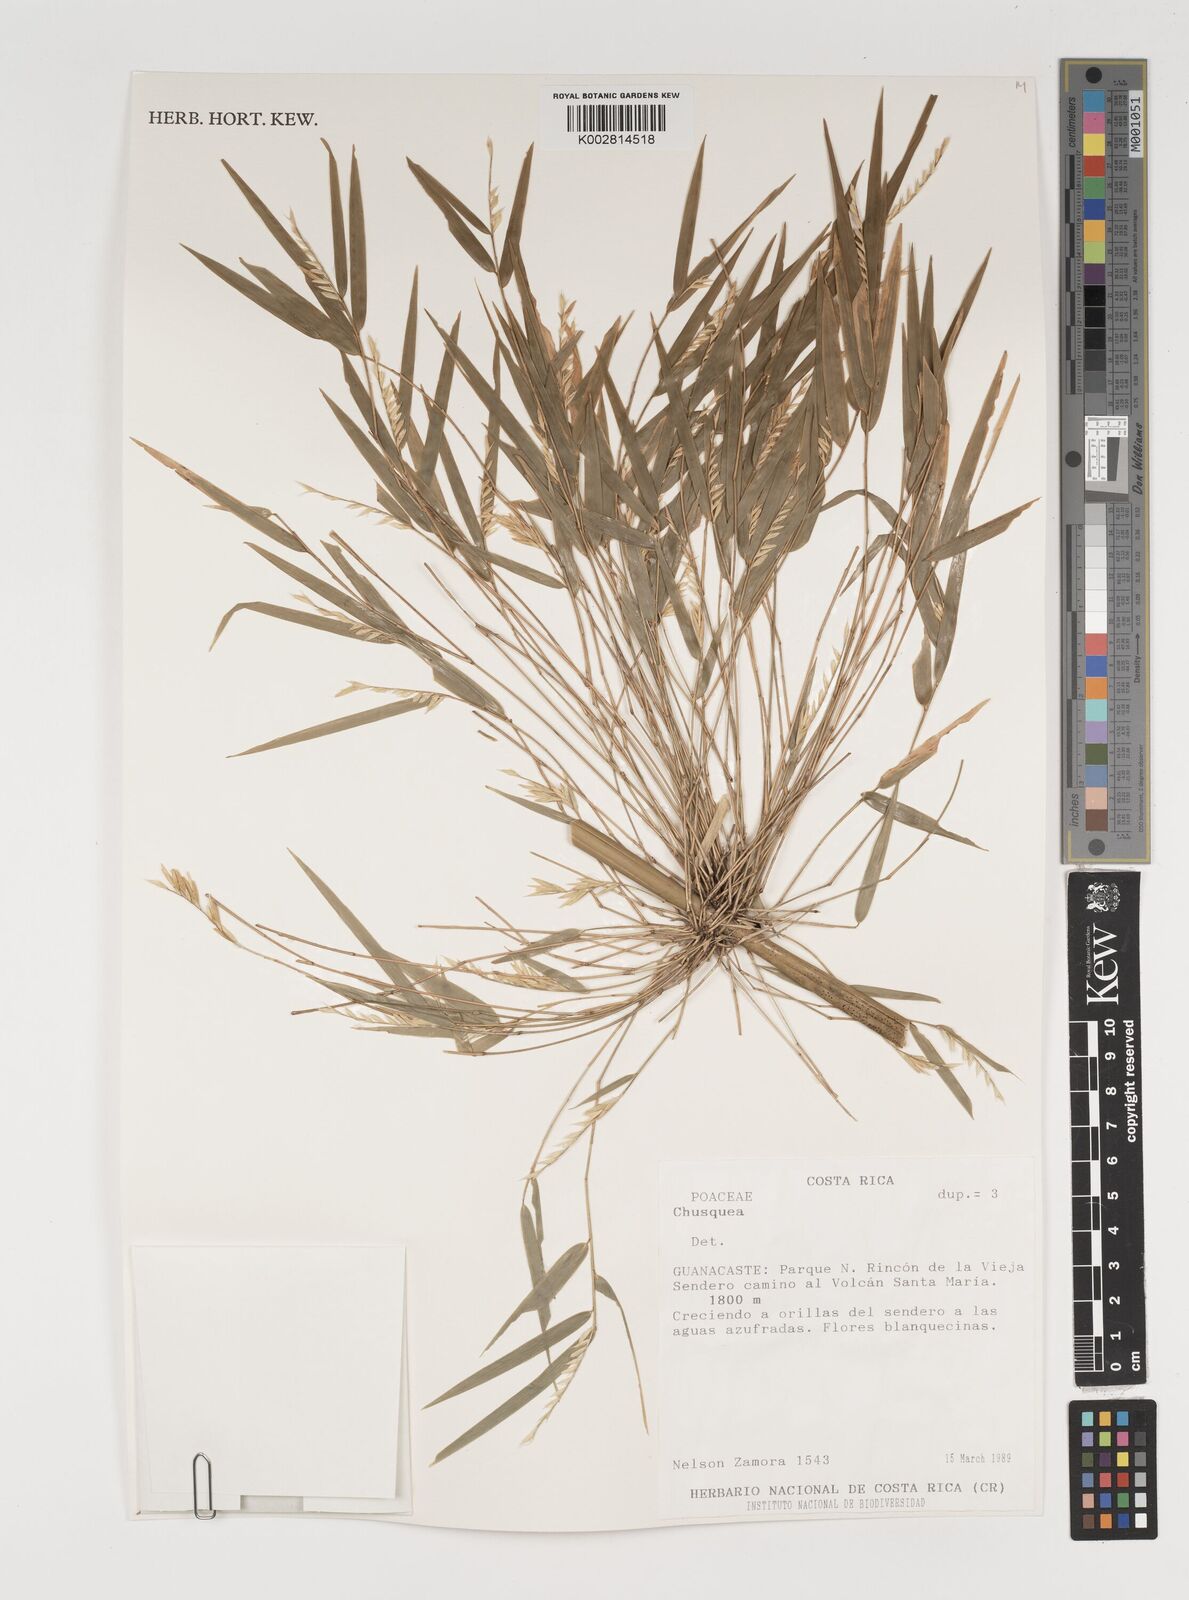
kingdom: Plantae
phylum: Tracheophyta
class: Liliopsida
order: Poales
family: Poaceae
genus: Rhipidocladum
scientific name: Rhipidocladum racemiflorum
